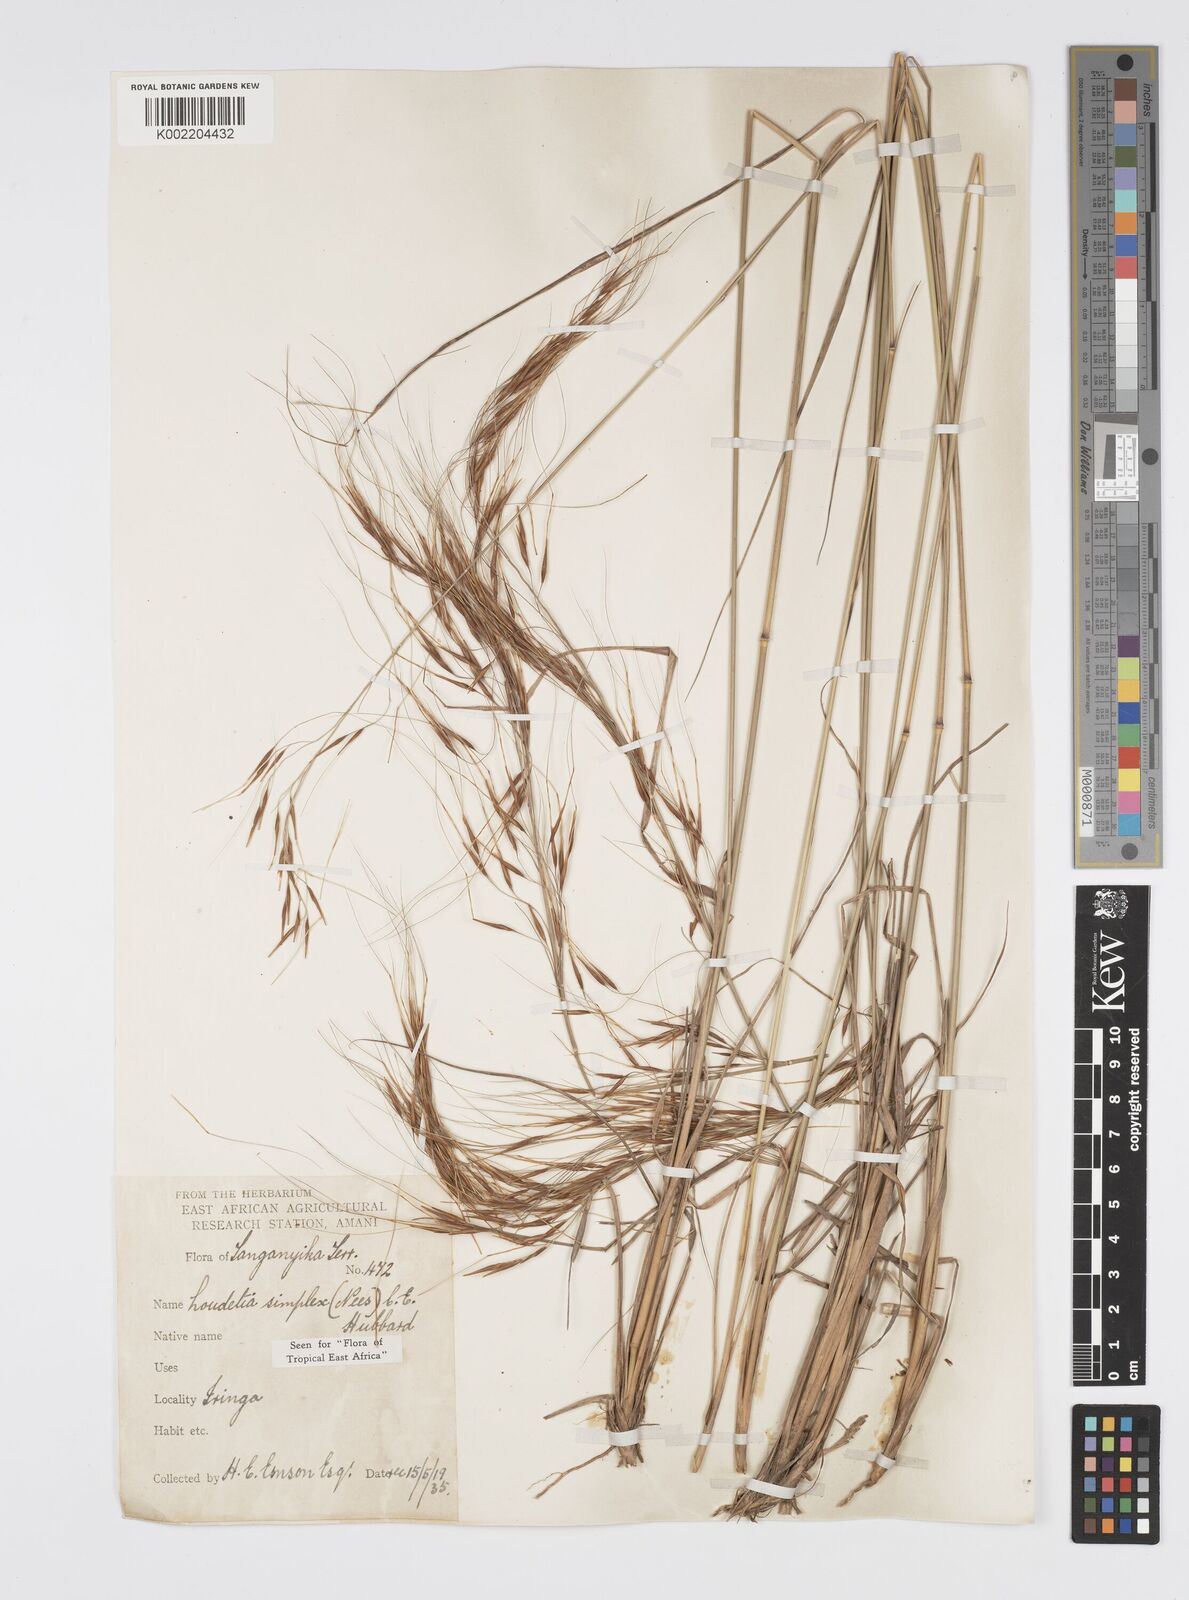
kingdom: Plantae
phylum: Tracheophyta
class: Liliopsida
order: Poales
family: Poaceae
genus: Loudetia
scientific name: Loudetia simplex
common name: Common russet grass
